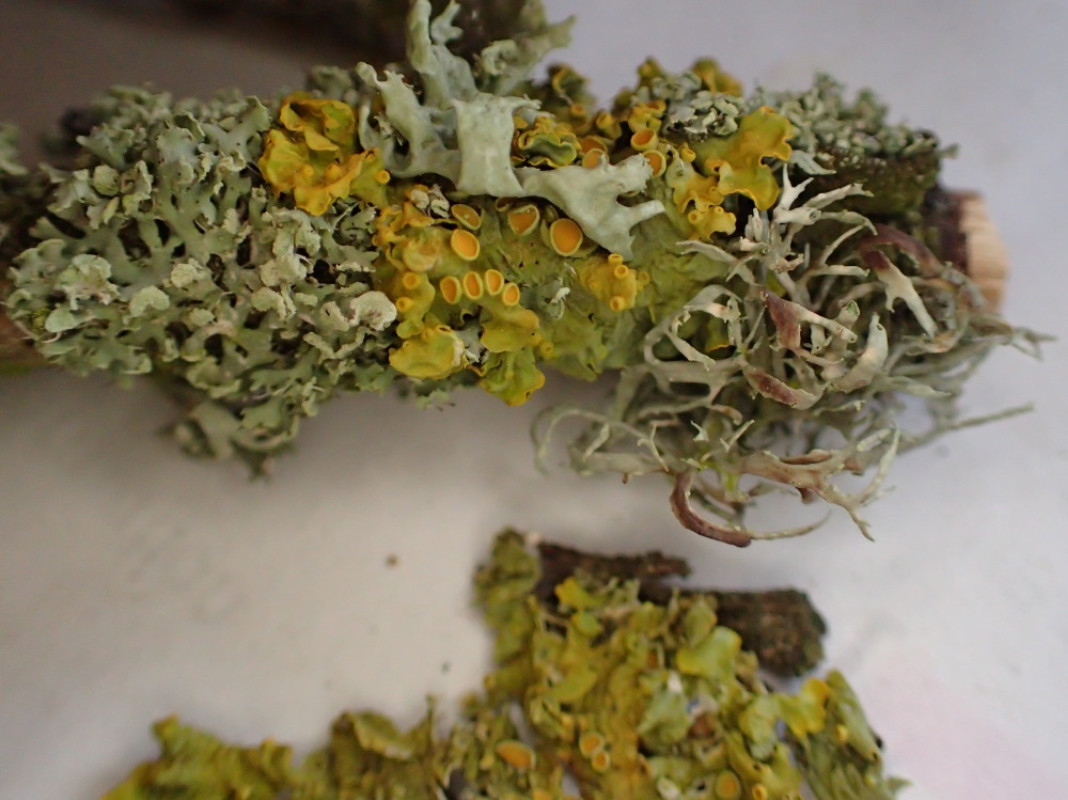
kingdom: Fungi
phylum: Ascomycota
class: Lecanoromycetes
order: Teloschistales
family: Teloschistaceae
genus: Xanthoria
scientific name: Xanthoria parietina
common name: almindelig væggelav
